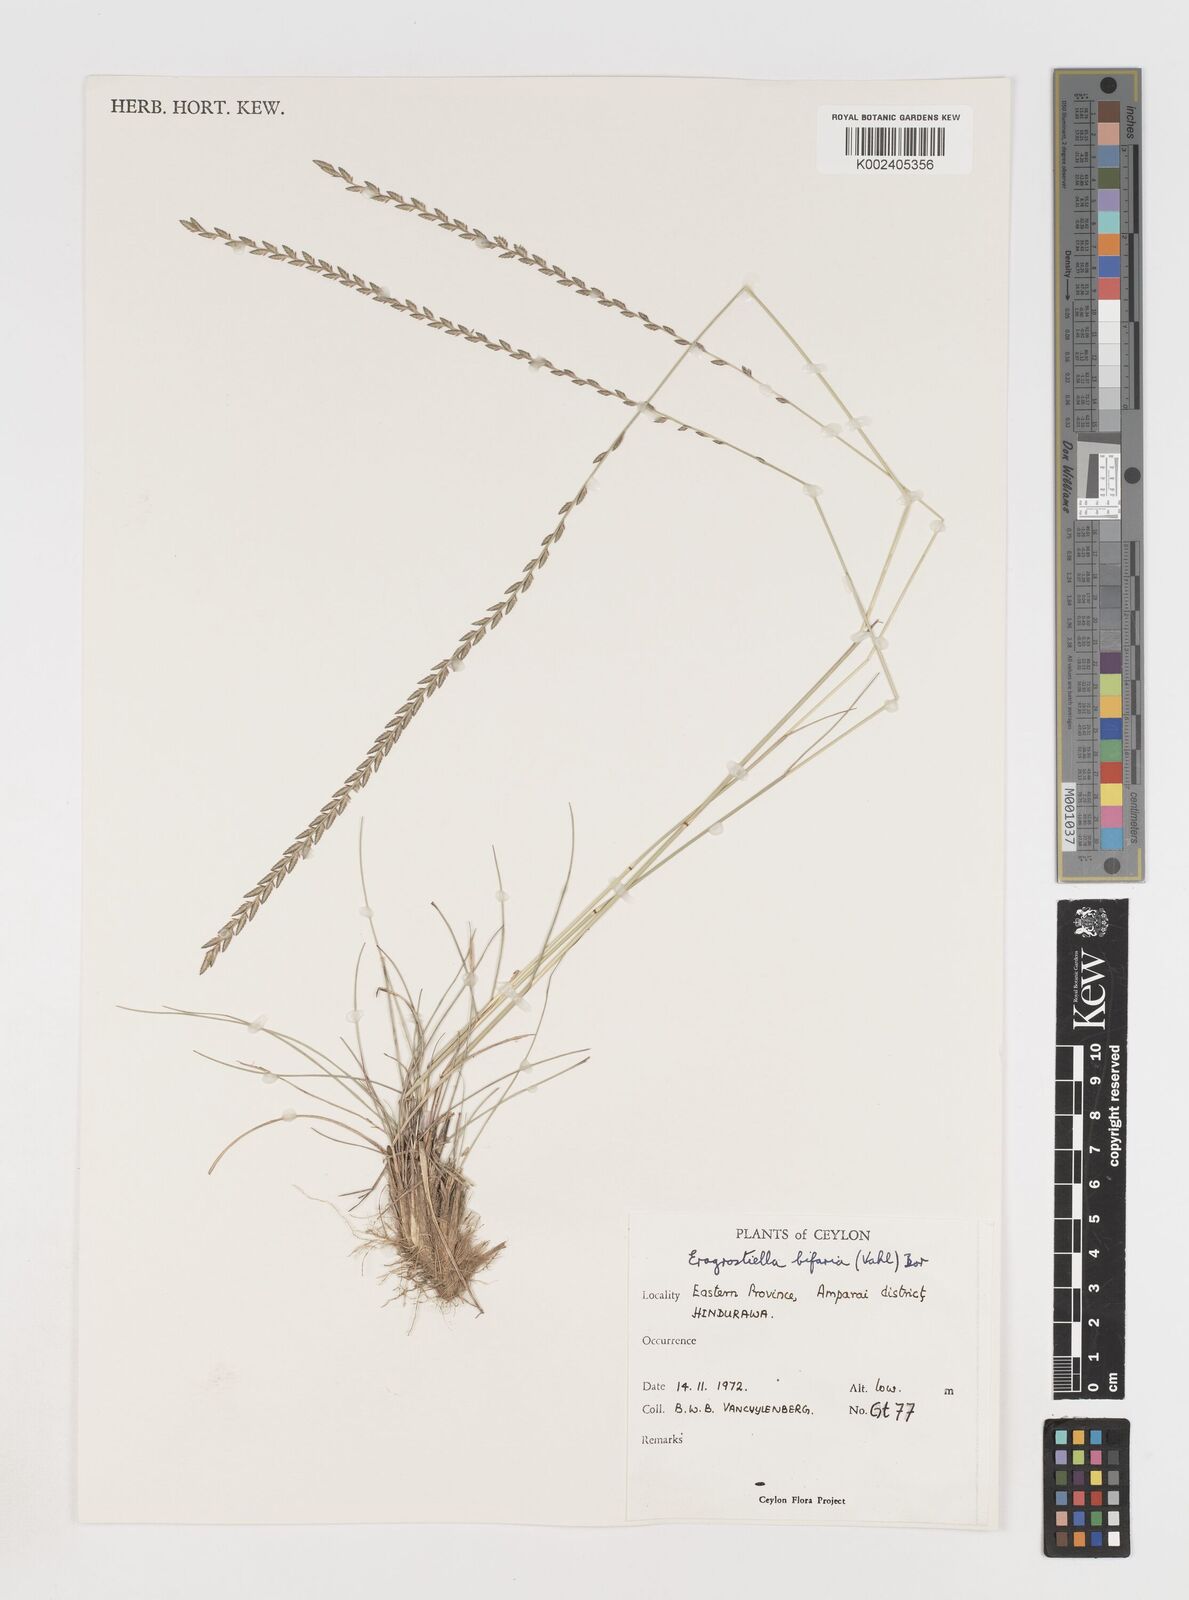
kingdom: Plantae
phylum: Tracheophyta
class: Liliopsida
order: Poales
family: Poaceae
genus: Eragrostiella
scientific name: Eragrostiella bifaria
